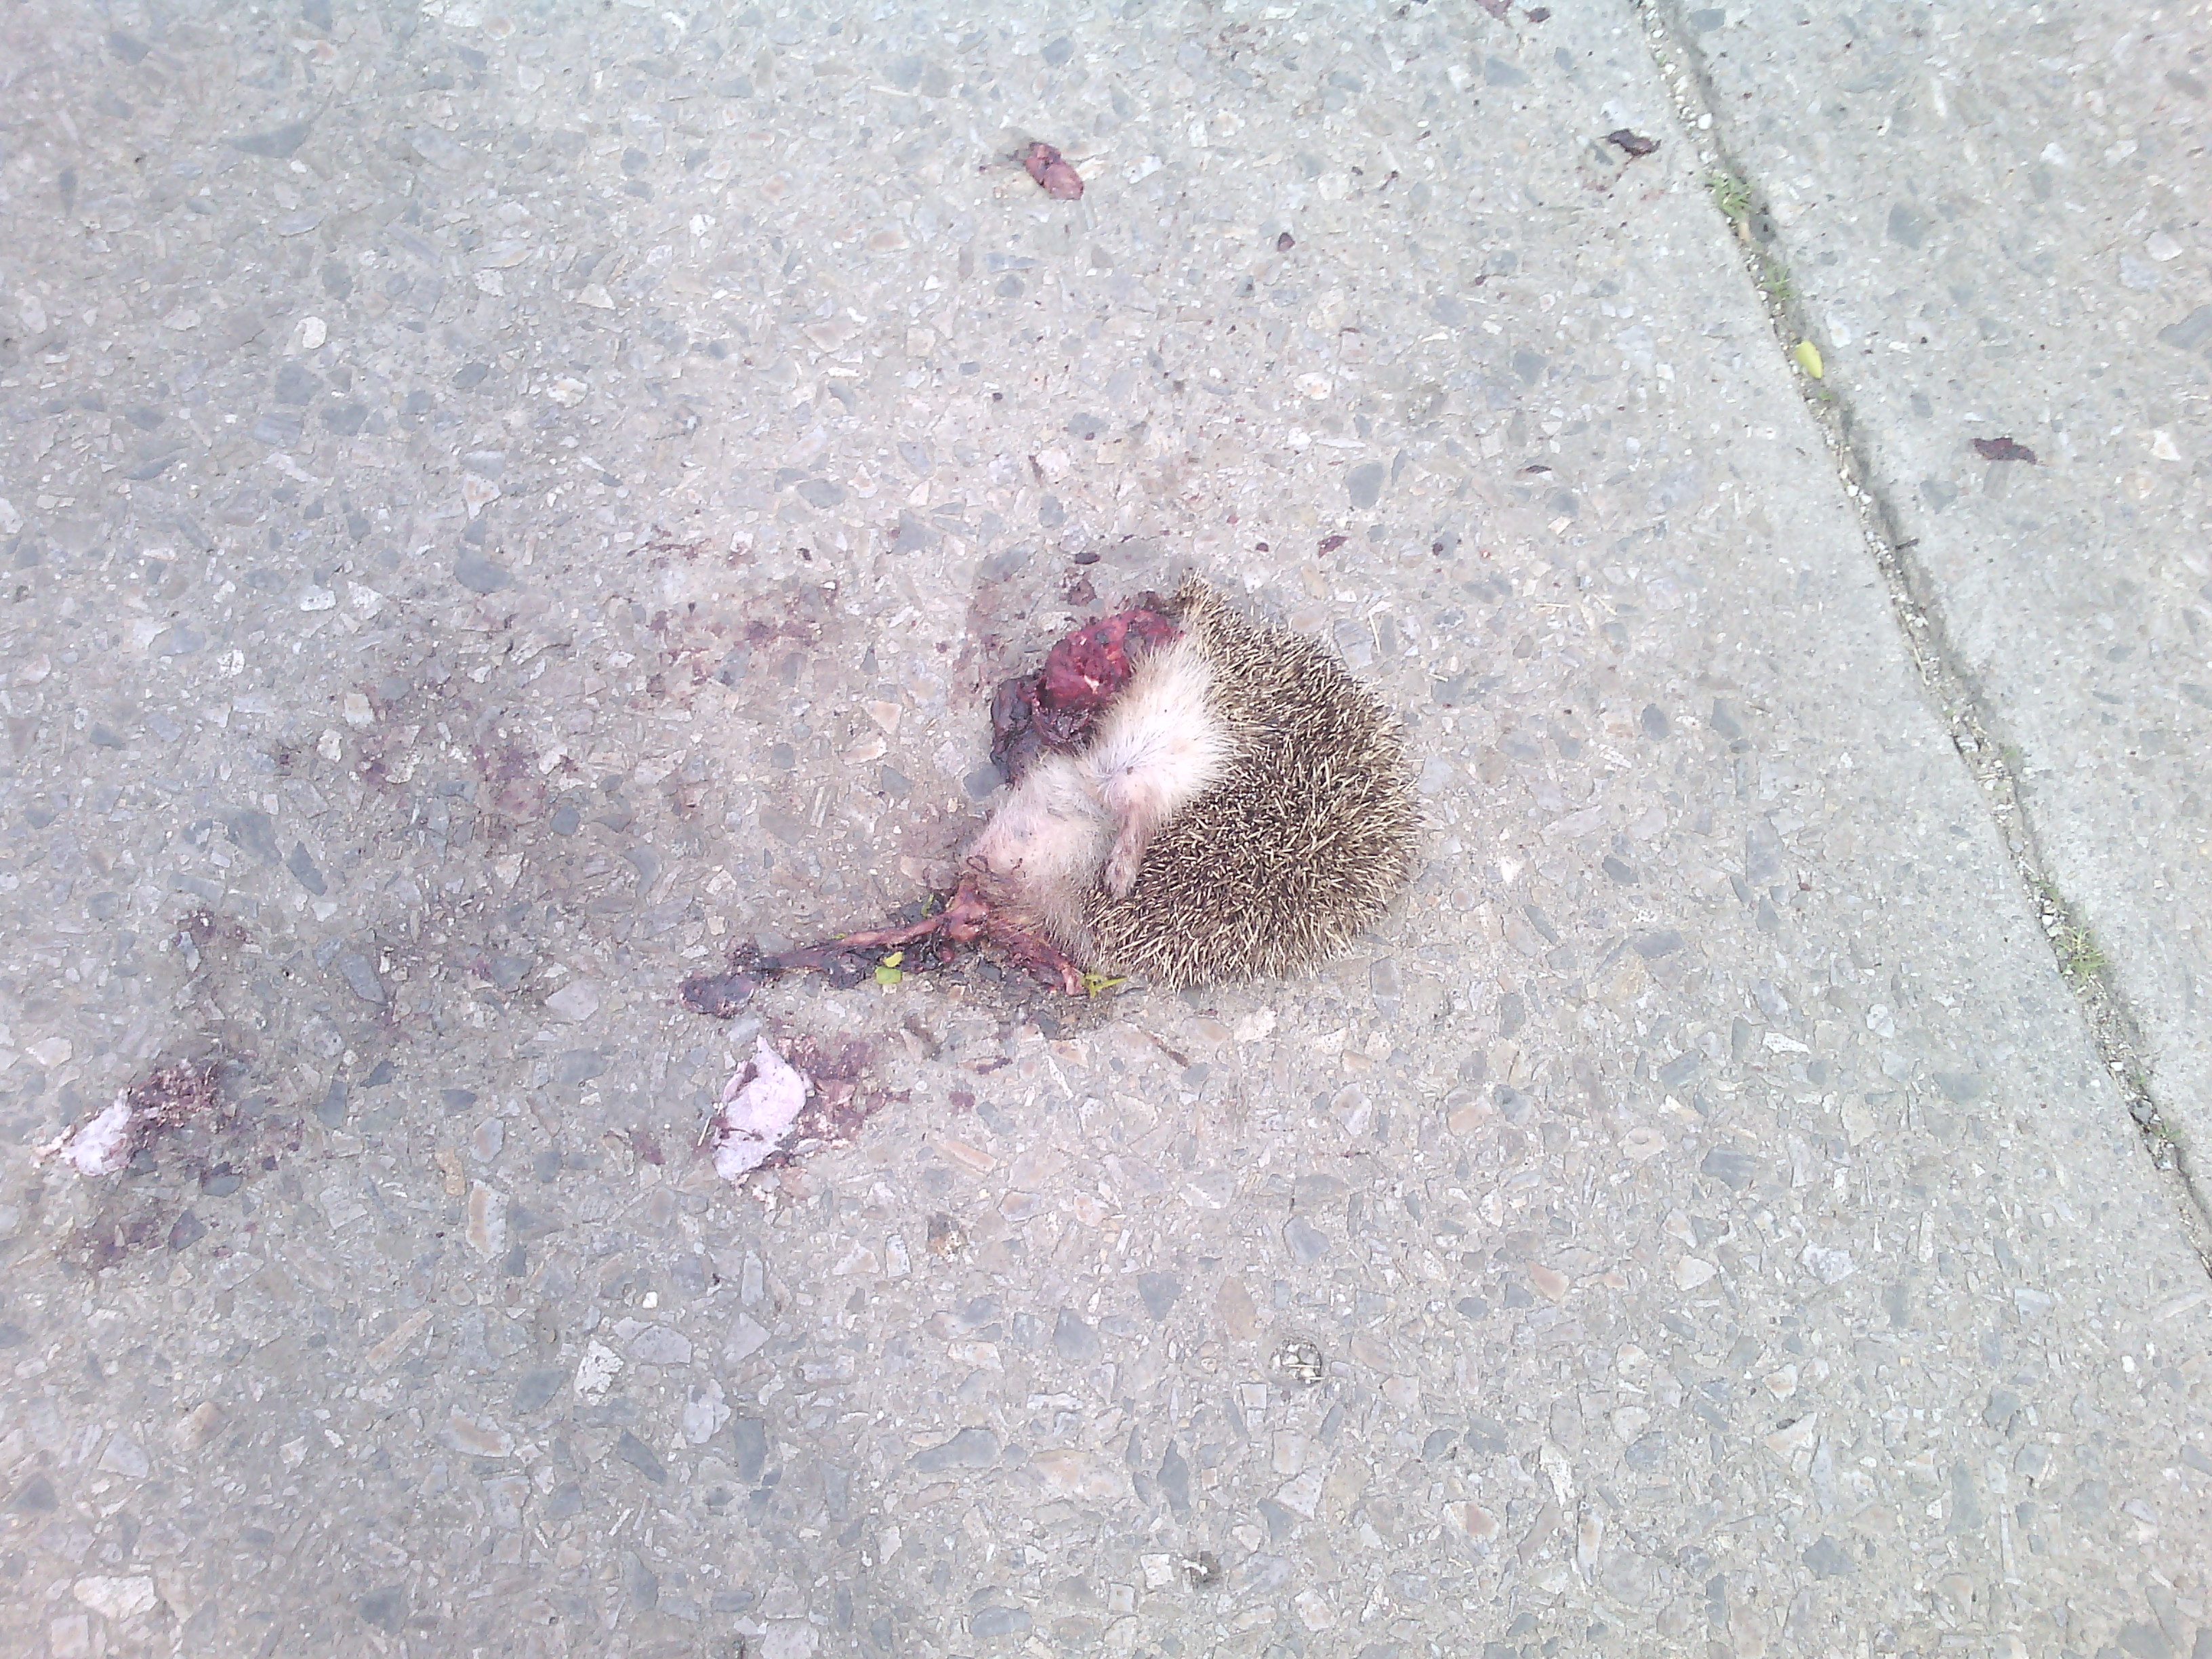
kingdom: Animalia
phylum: Chordata
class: Mammalia
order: Erinaceomorpha
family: Erinaceidae
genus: Erinaceus
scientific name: Erinaceus
